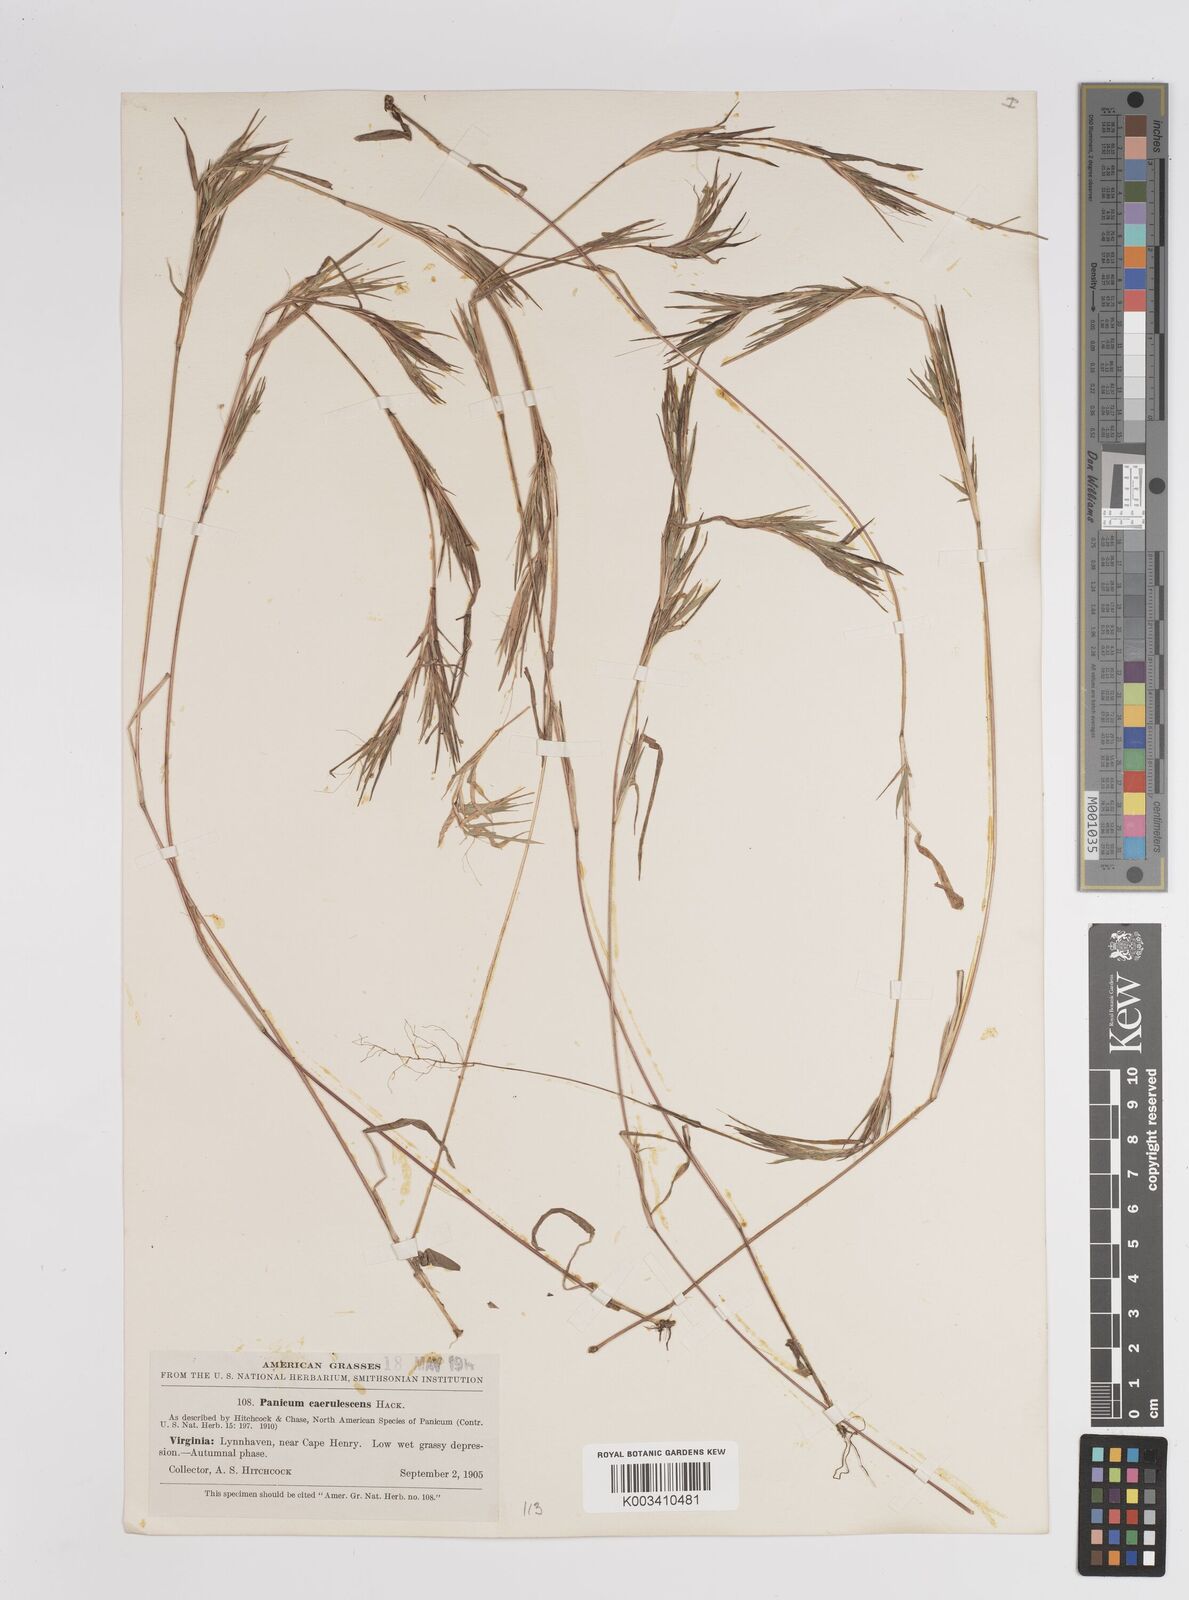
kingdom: Plantae
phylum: Tracheophyta
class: Liliopsida
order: Poales
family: Poaceae
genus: Dichanthelium
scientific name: Dichanthelium dichotomum
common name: Cypress panicgrass
